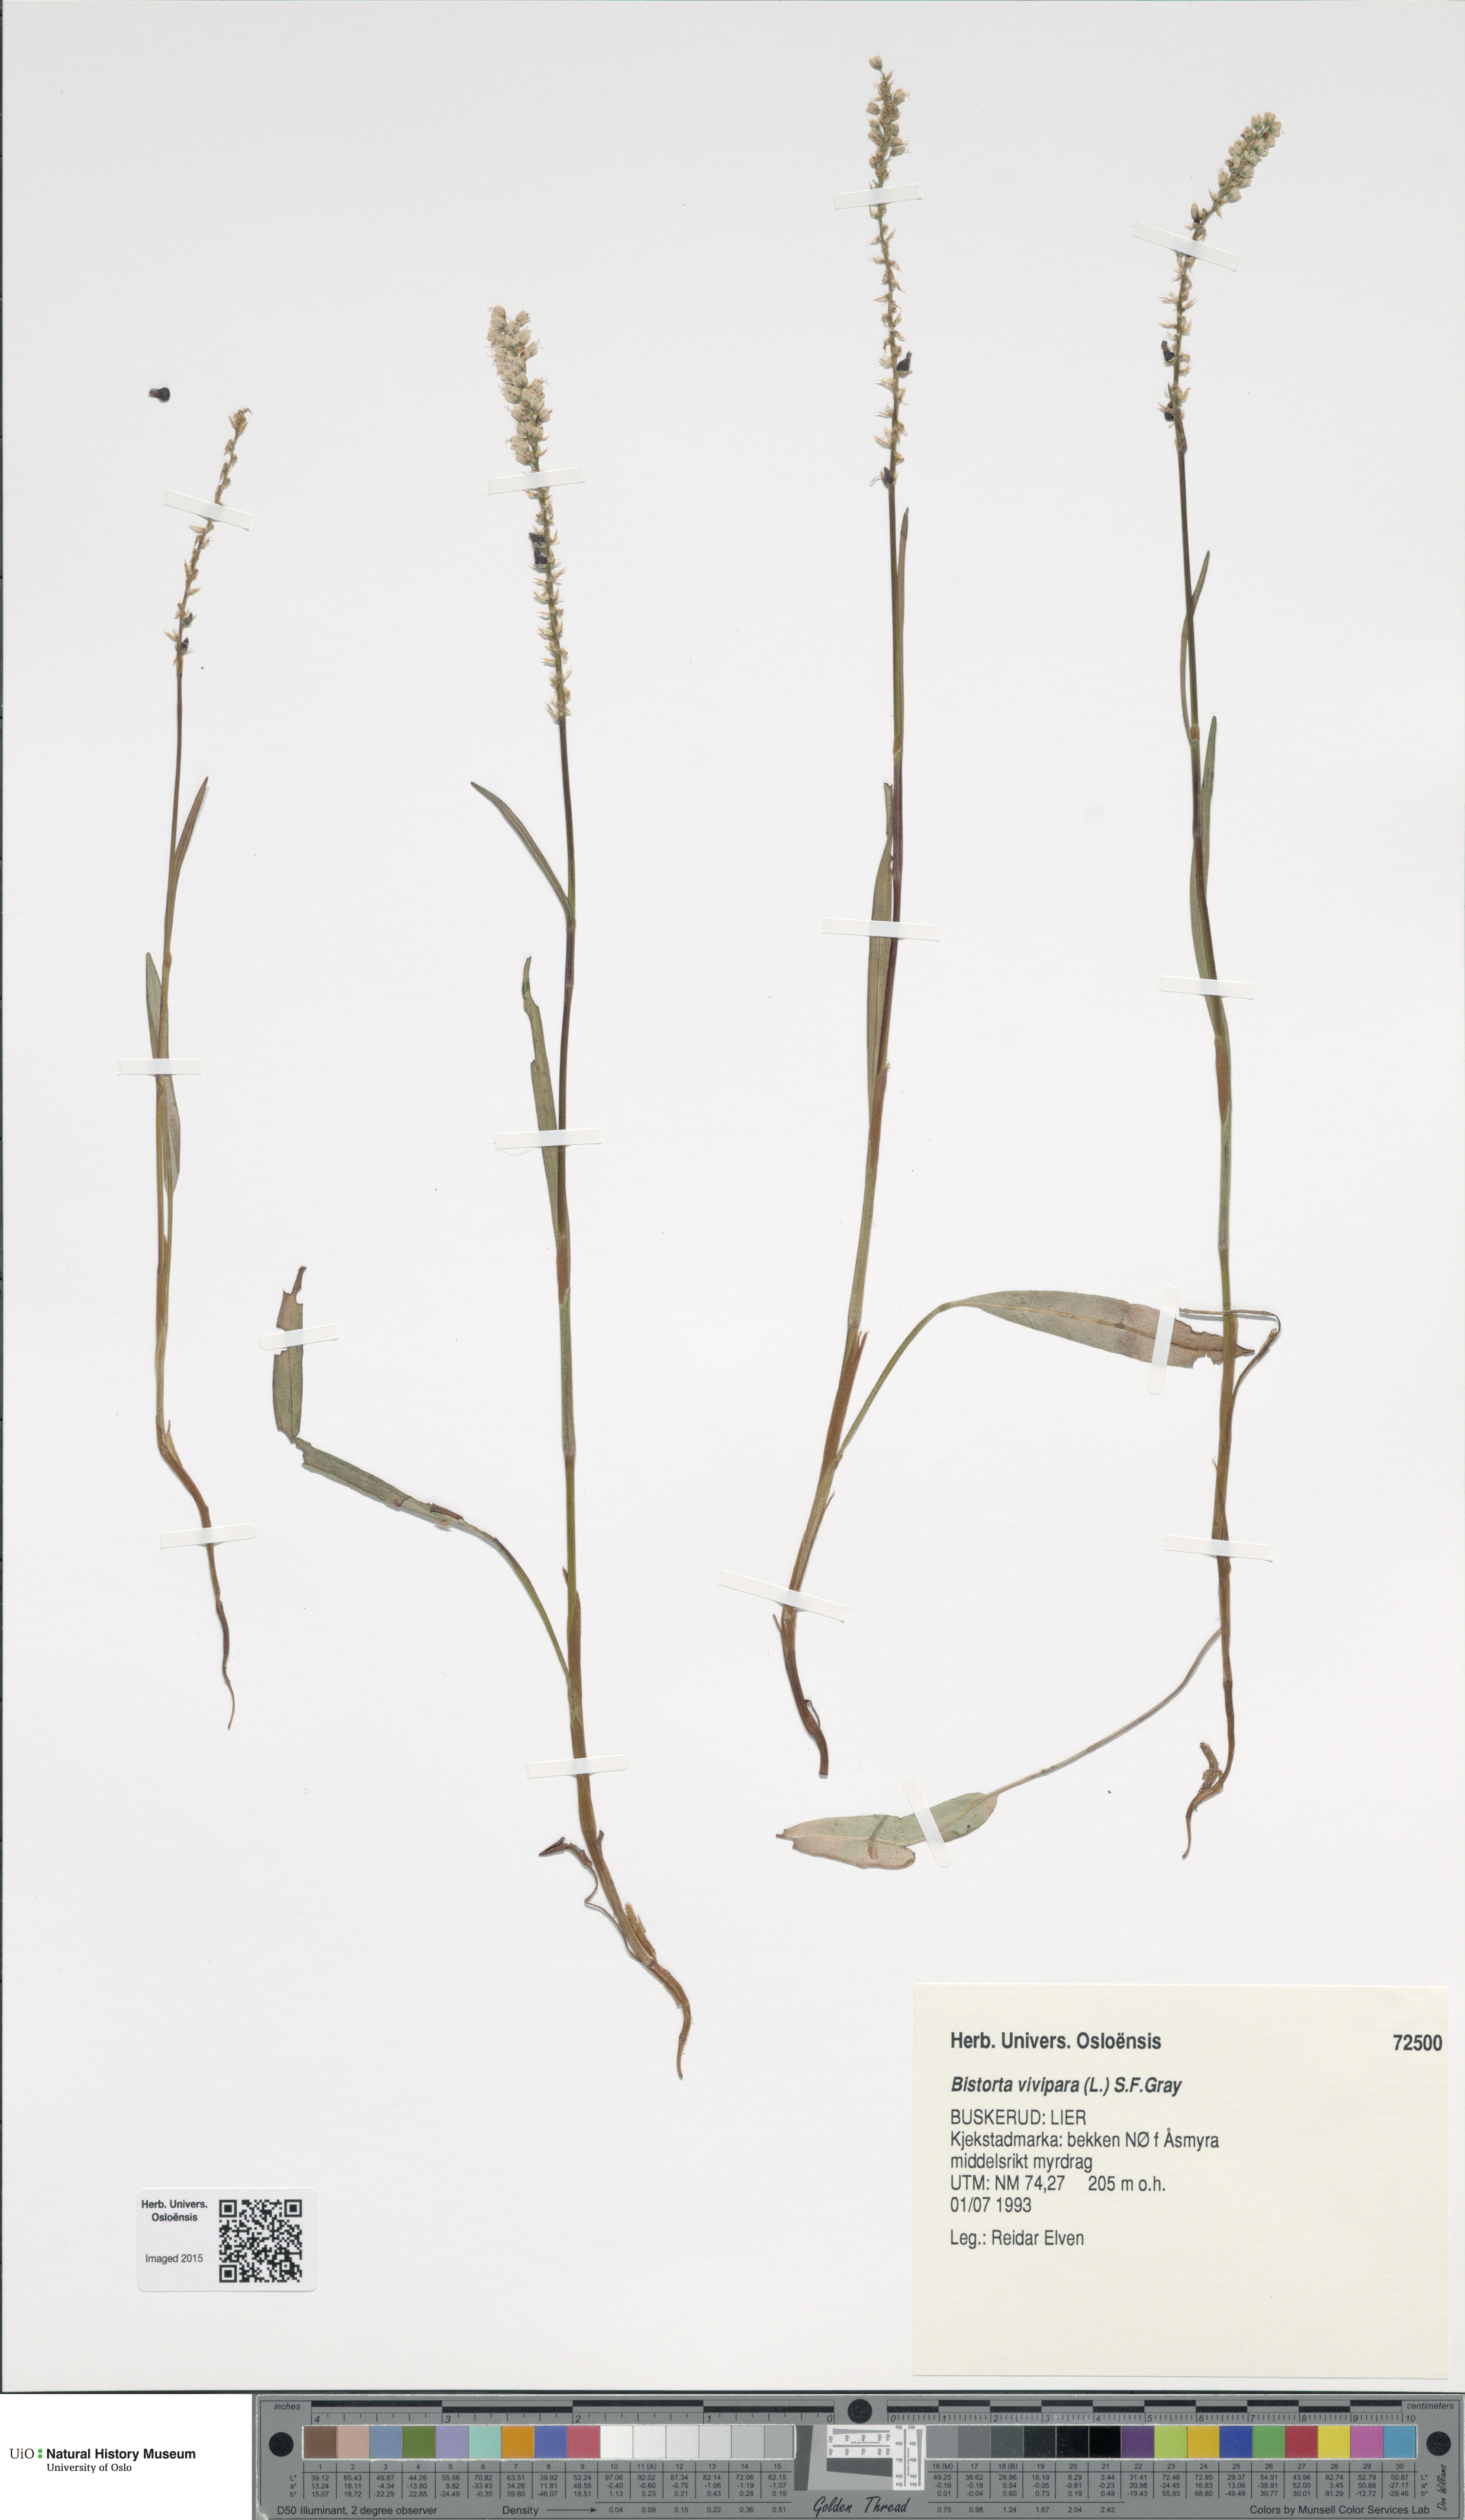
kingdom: Plantae
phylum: Tracheophyta
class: Magnoliopsida
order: Caryophyllales
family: Polygonaceae
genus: Bistorta
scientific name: Bistorta vivipara
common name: Alpine bistort
